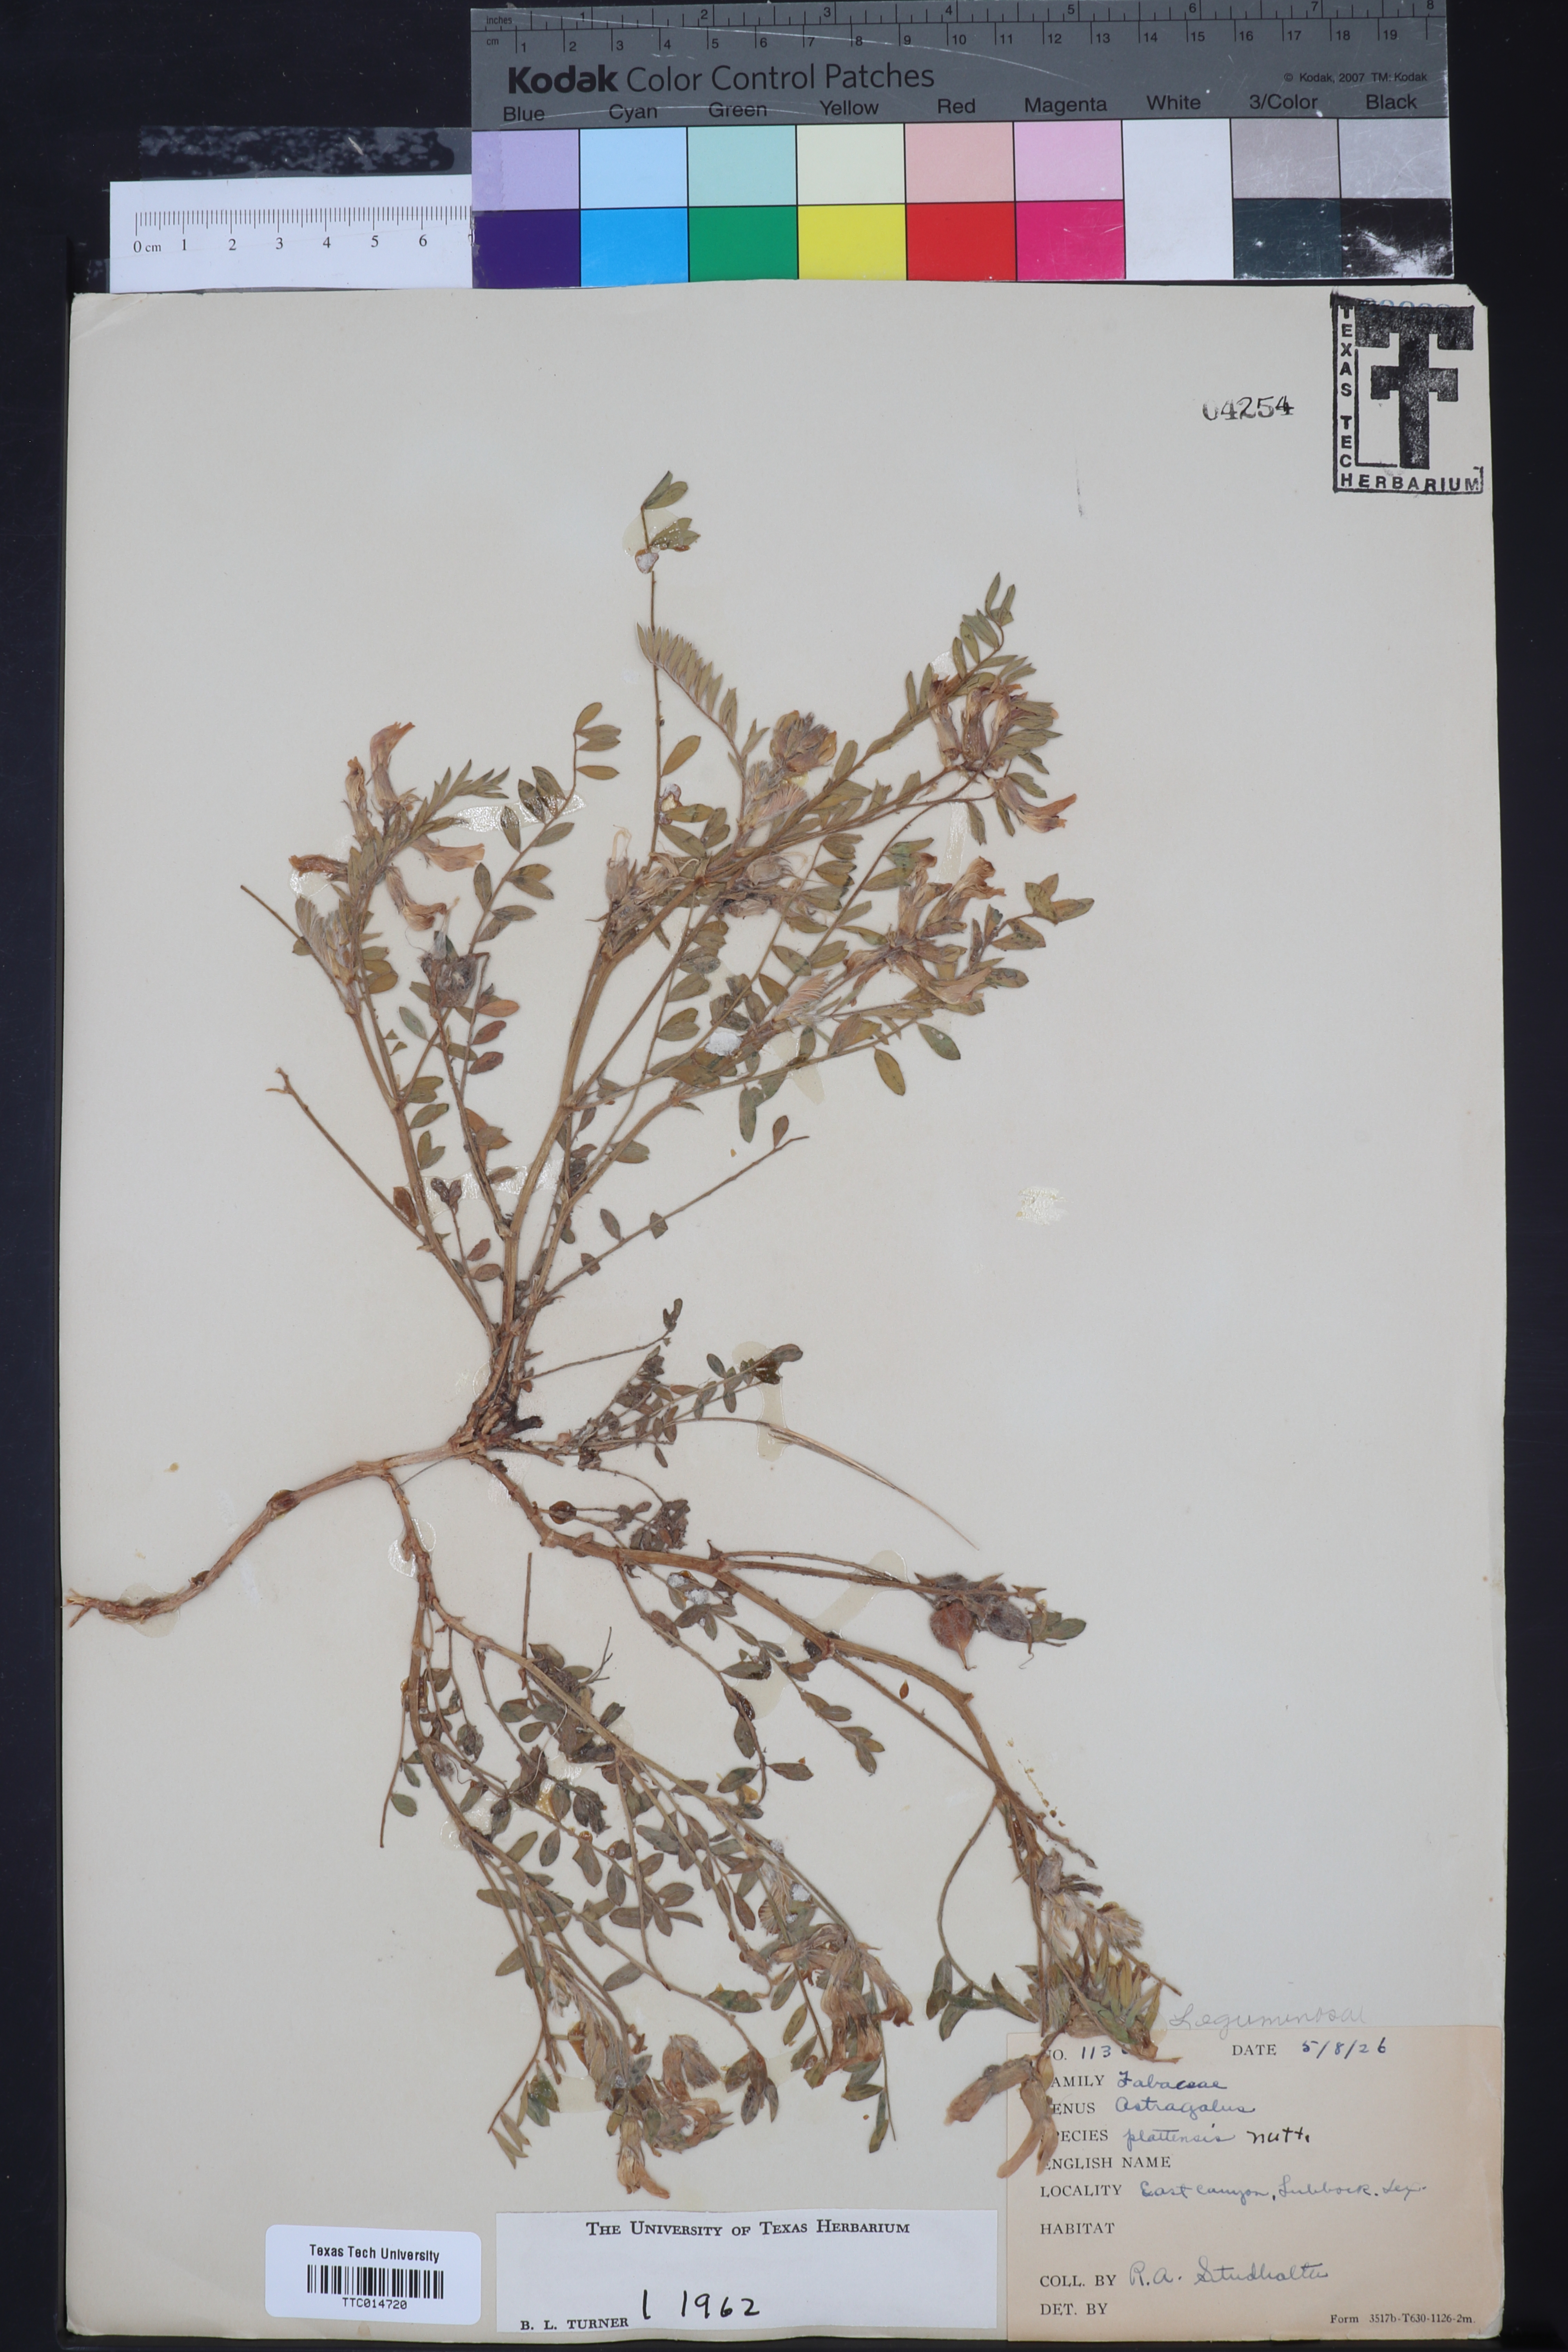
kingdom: Plantae
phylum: Tracheophyta
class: Magnoliopsida
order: Fabales
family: Fabaceae
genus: Astragalus
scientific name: Astragalus plattensis
